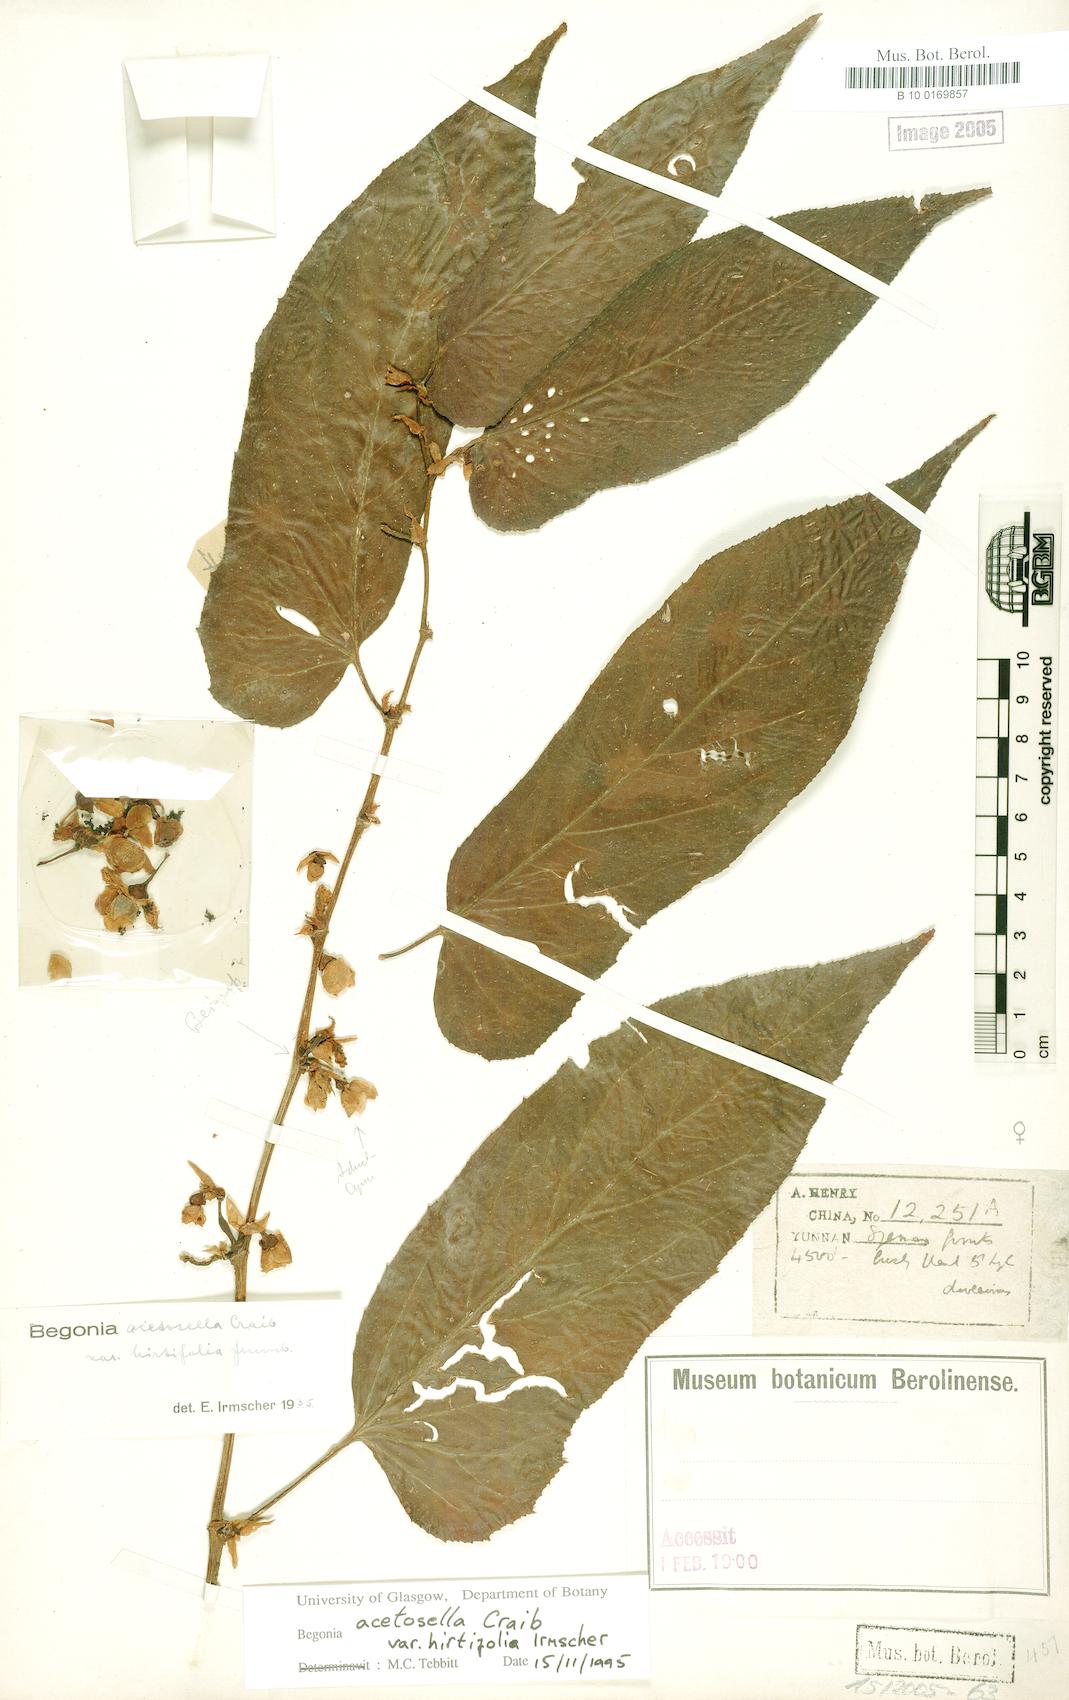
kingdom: Plantae
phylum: Tracheophyta
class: Magnoliopsida
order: Cucurbitales
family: Begoniaceae
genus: Begonia
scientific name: Begonia acetosella
